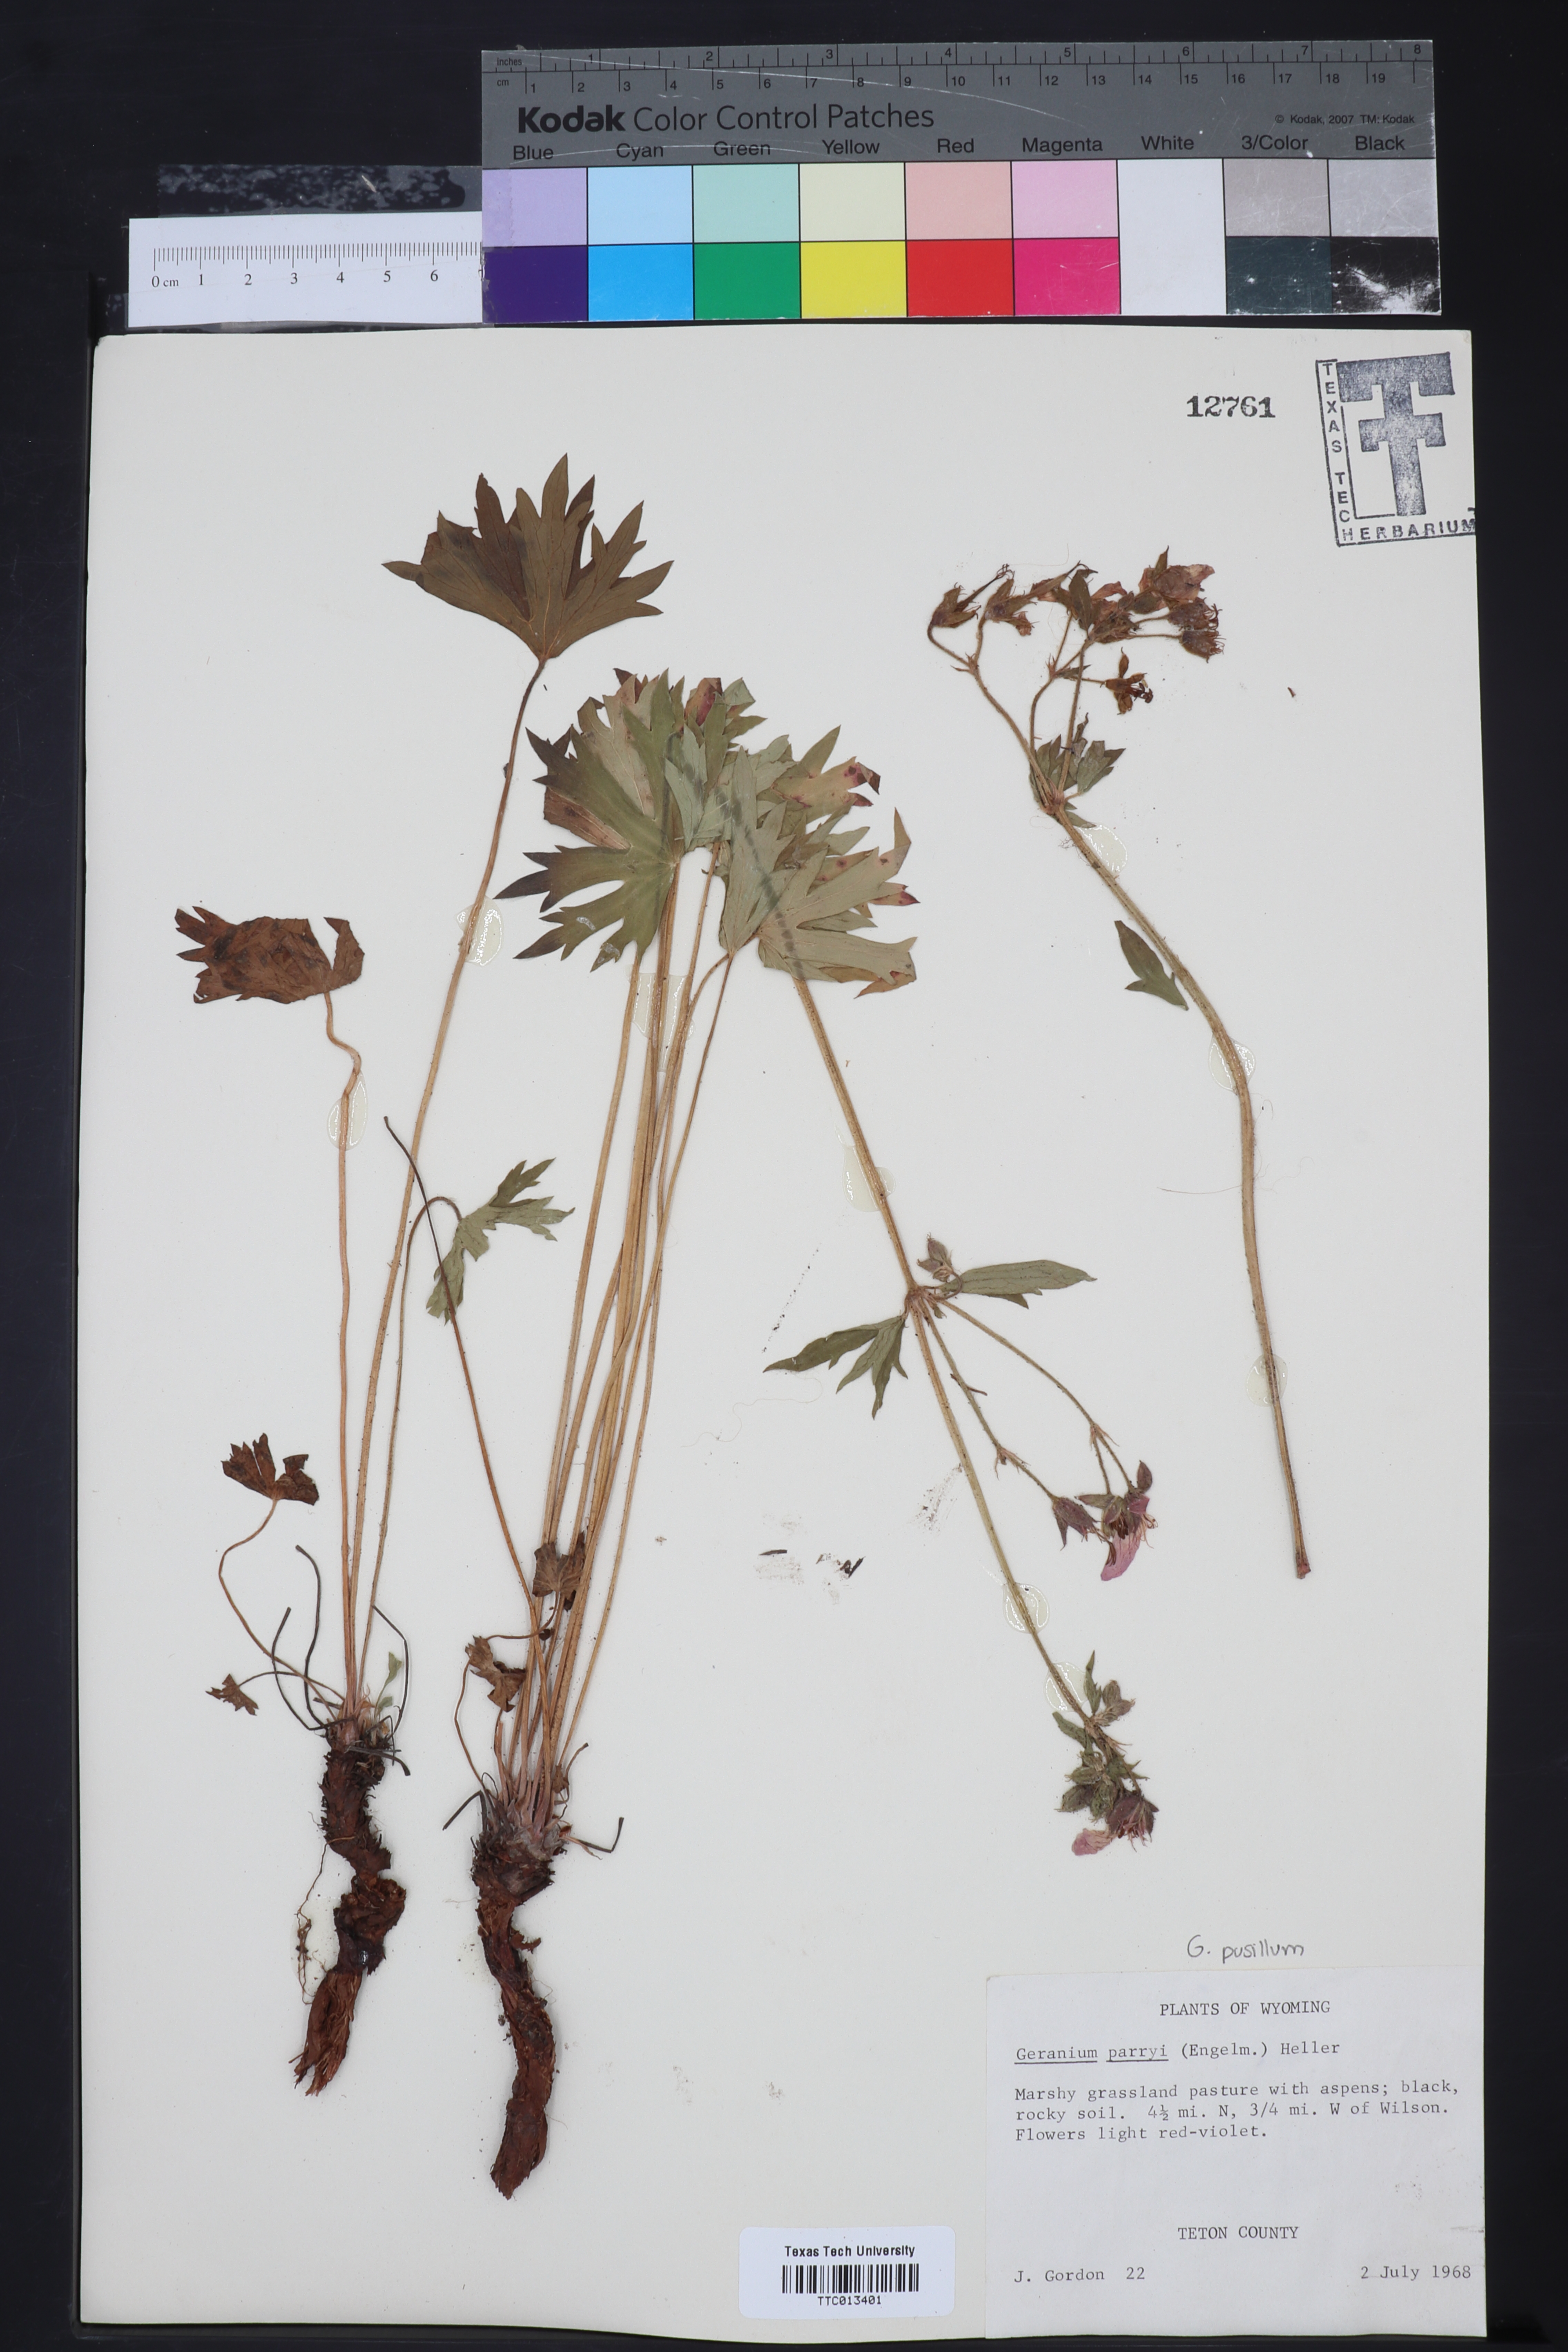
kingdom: Plantae
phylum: Tracheophyta
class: Magnoliopsida
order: Geraniales
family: Geraniaceae
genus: Geranium
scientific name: Geranium caespitosum
